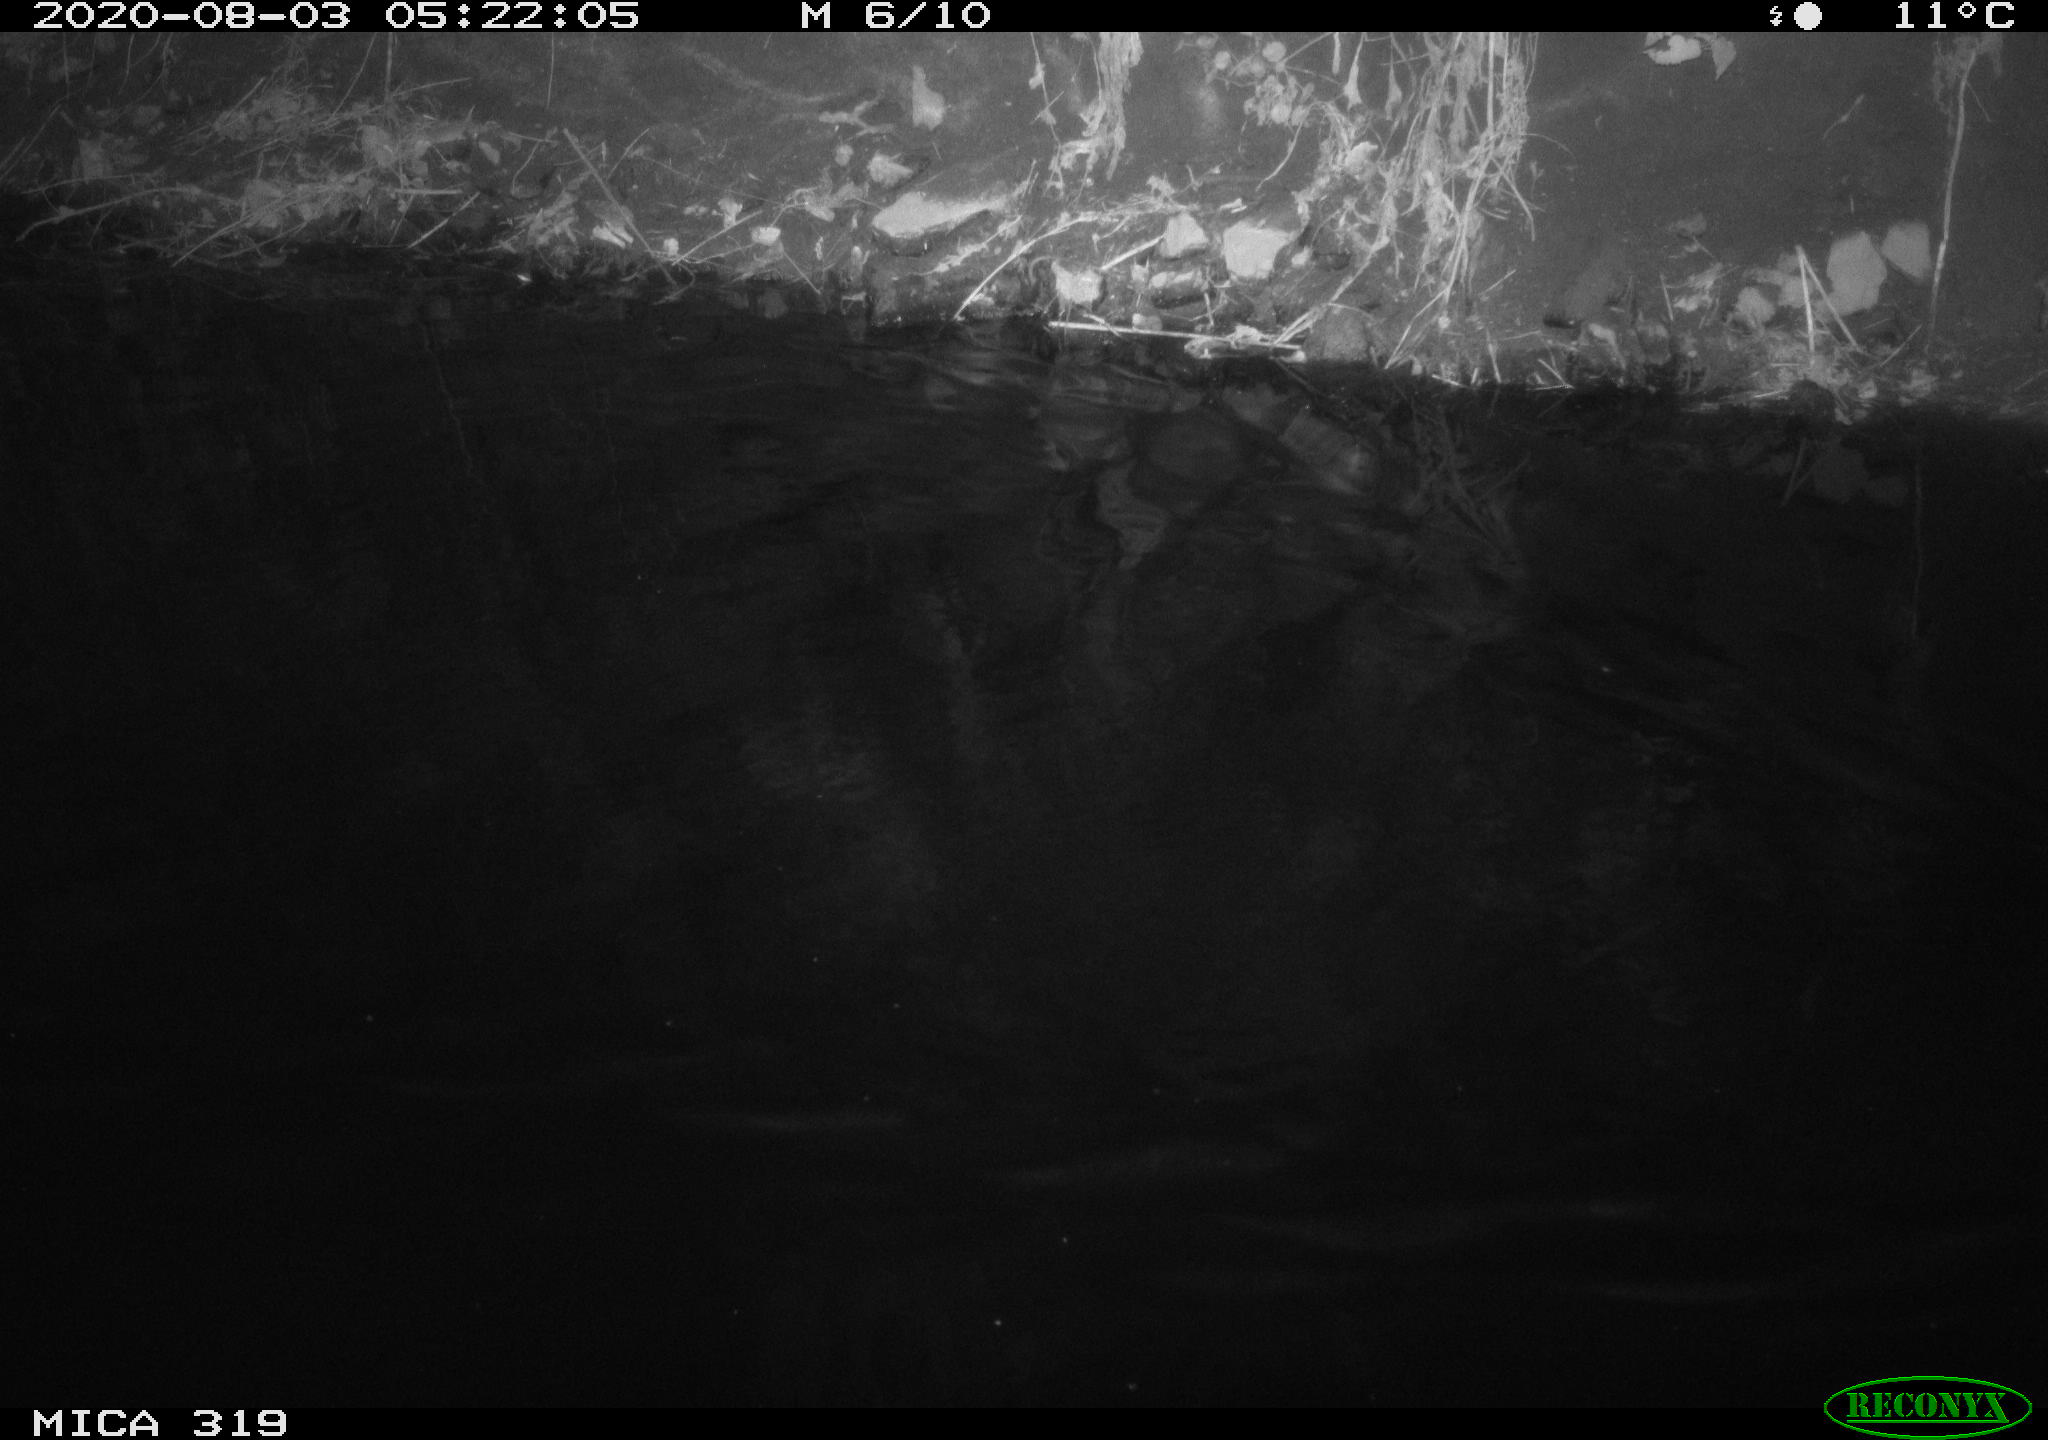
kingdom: Animalia
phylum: Chordata
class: Aves
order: Anseriformes
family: Anatidae
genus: Anas
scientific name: Anas platyrhynchos
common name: Mallard
